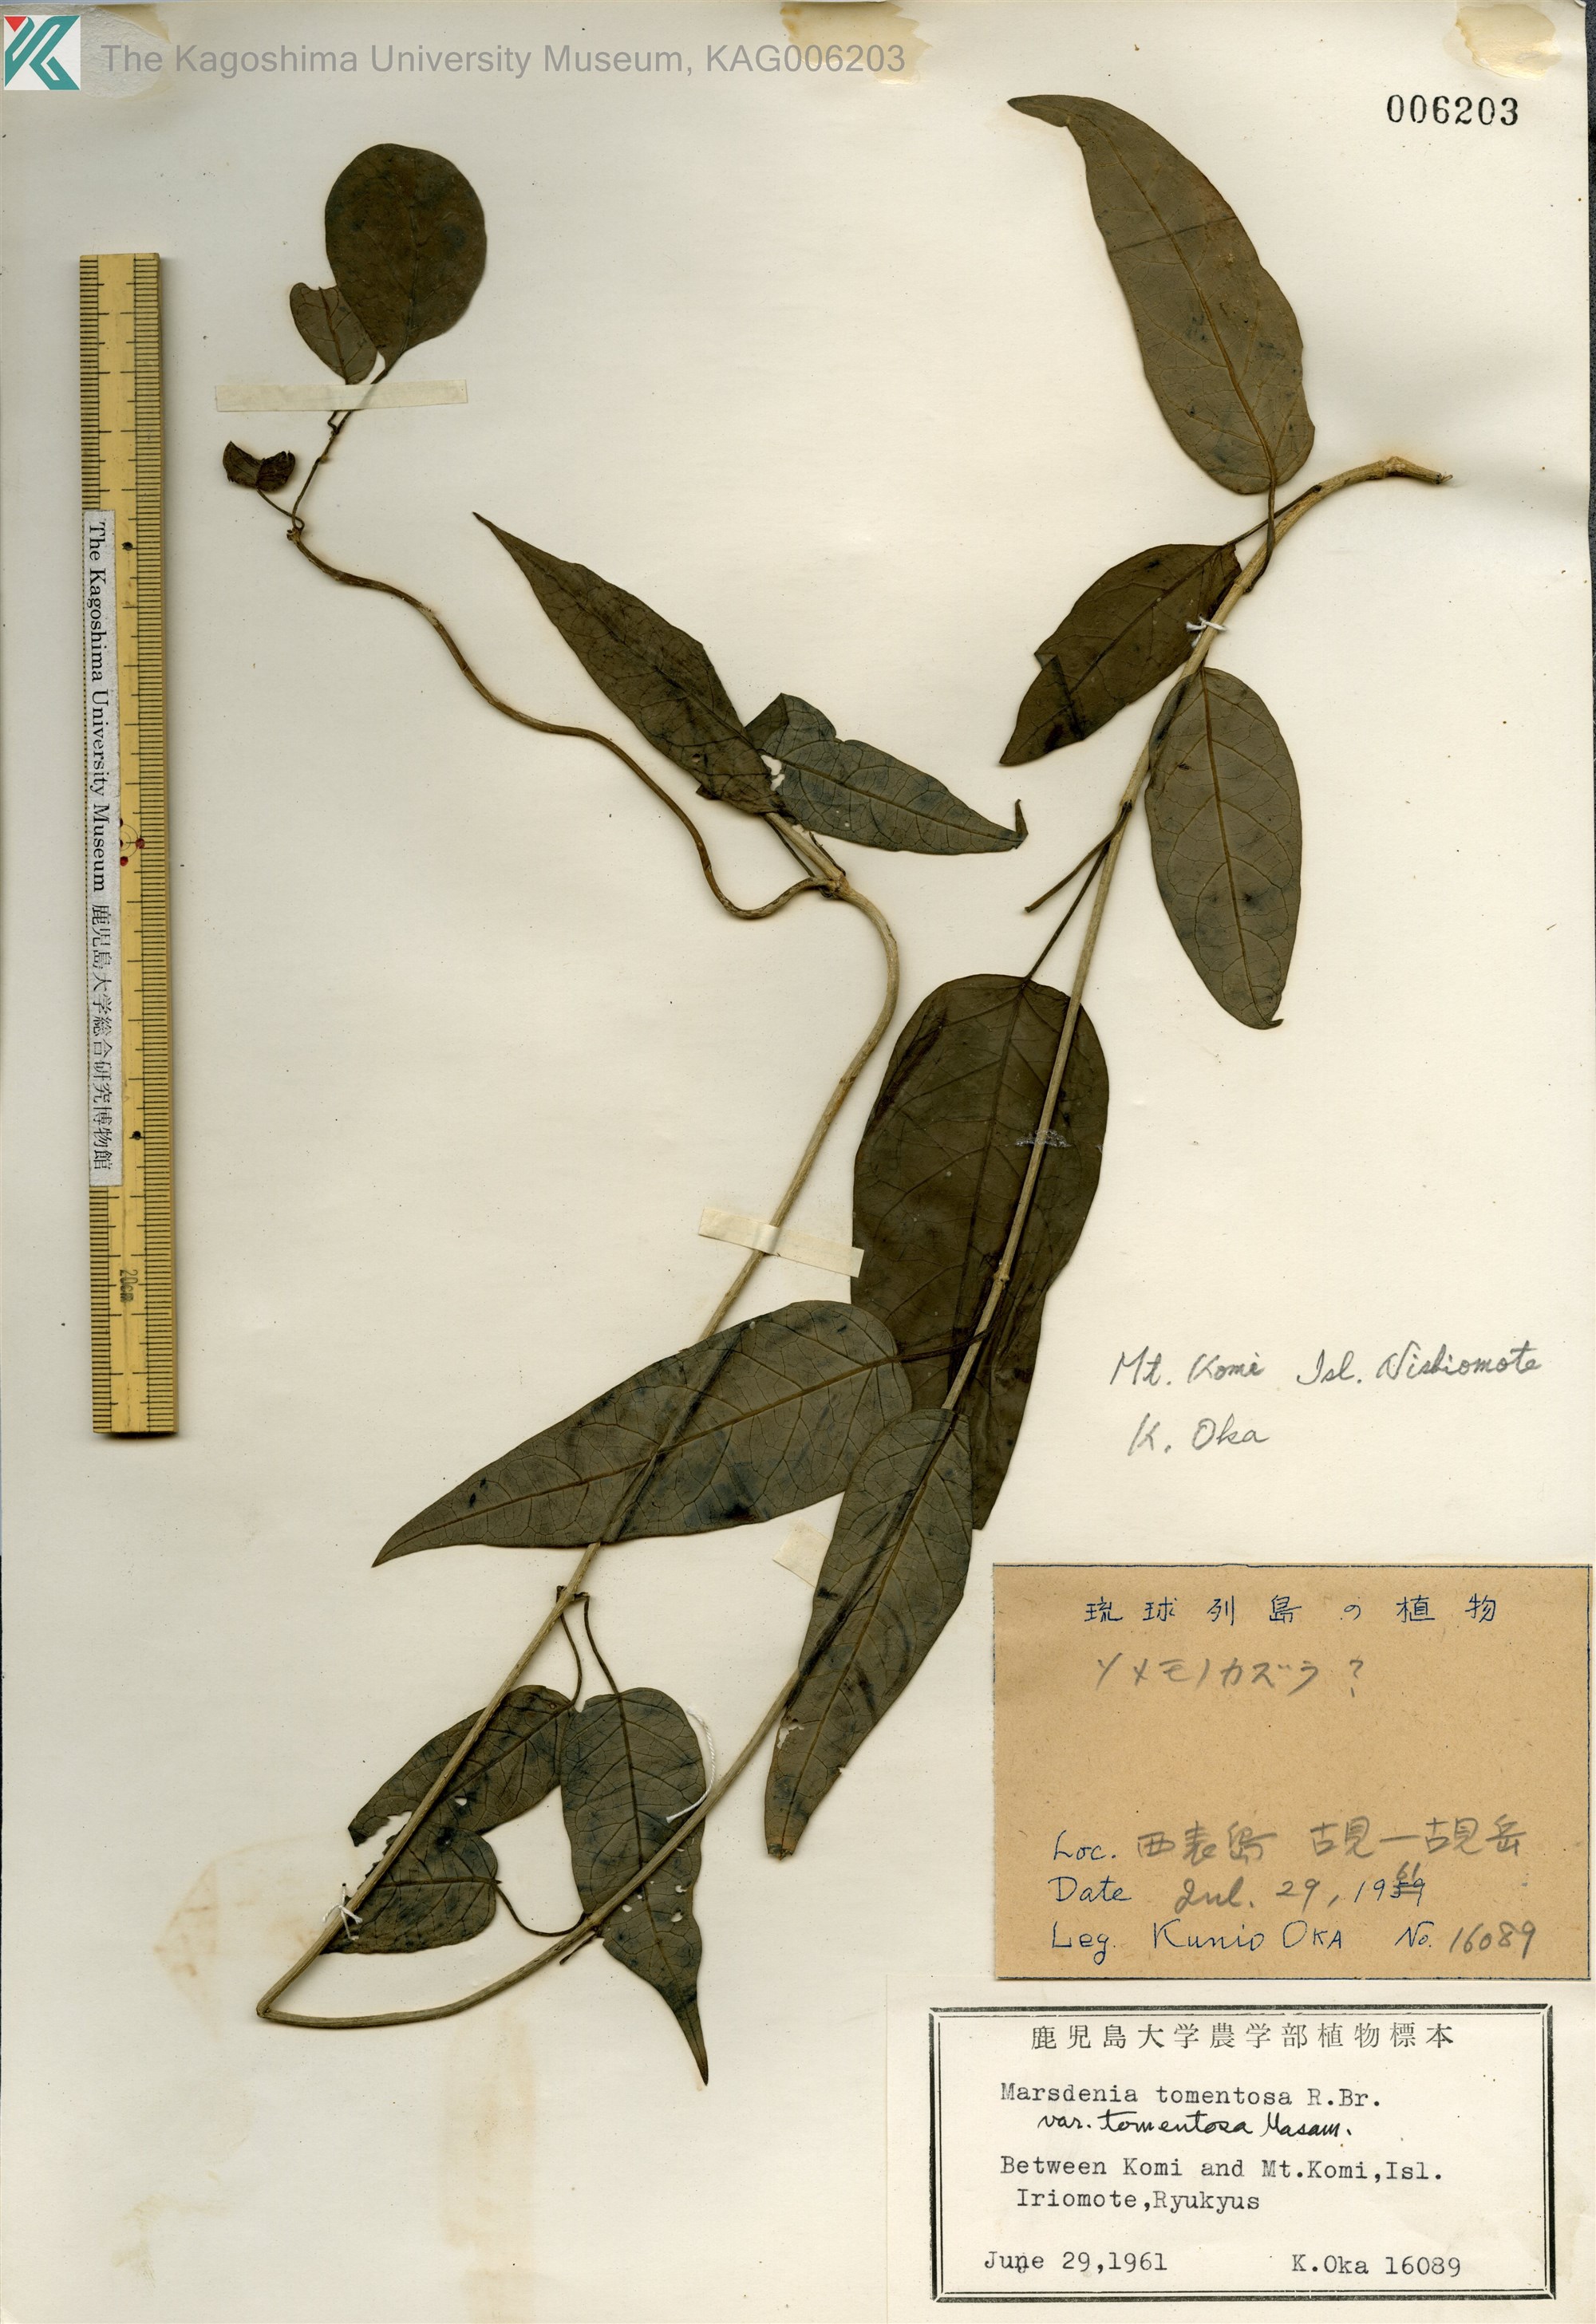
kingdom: Plantae
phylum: Tracheophyta
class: Magnoliopsida
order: Gentianales
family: Apocynaceae
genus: Marsdenia
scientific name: Marsdenia tinctoria
